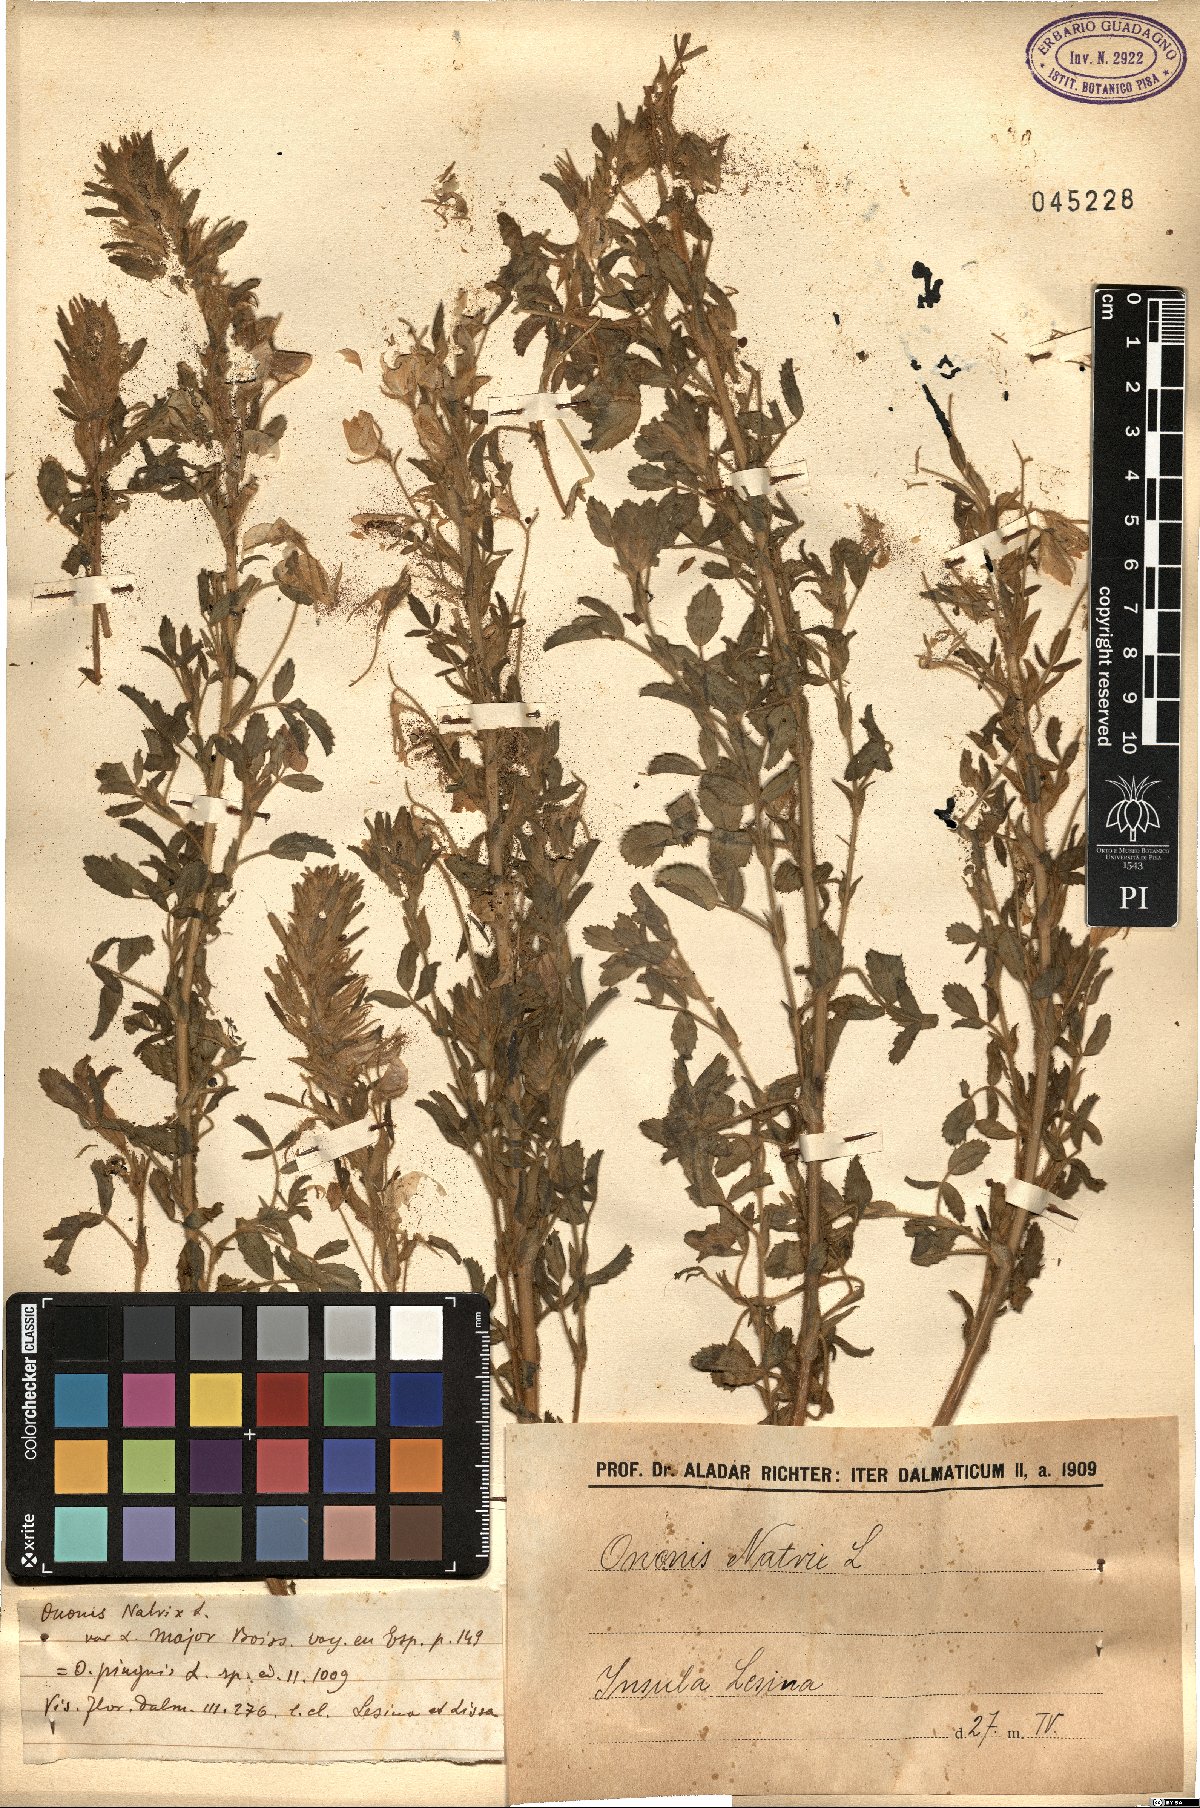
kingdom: Plantae
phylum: Tracheophyta
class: Magnoliopsida
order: Fabales
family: Fabaceae
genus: Ononis
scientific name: Ononis natrix
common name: Yellow restharrow
